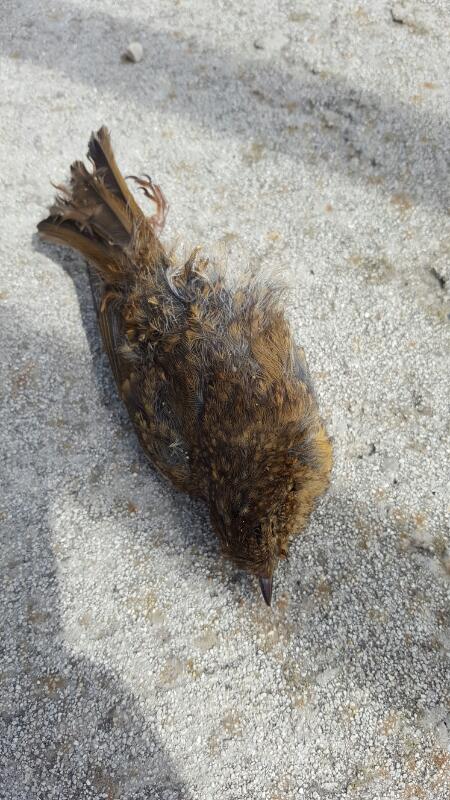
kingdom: Animalia
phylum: Chordata
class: Aves
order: Passeriformes
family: Turdidae
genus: Turdus
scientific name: Turdus merula
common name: Common blackbird
